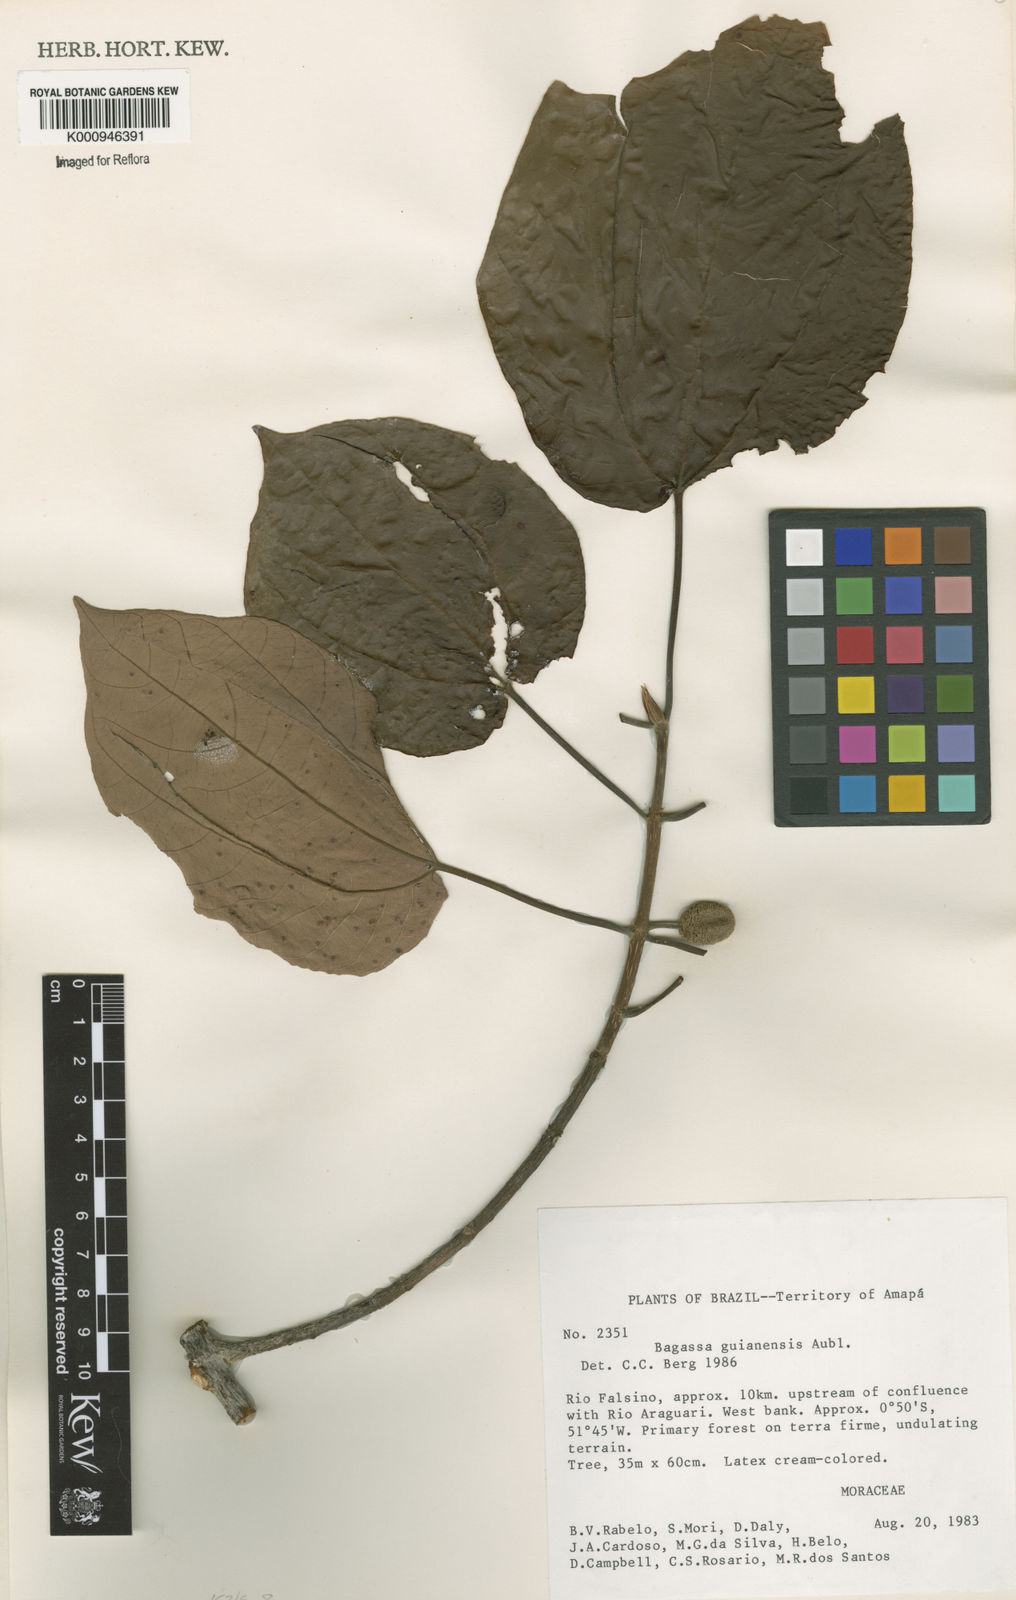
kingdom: Plantae
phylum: Tracheophyta
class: Magnoliopsida
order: Rosales
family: Moraceae
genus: Bagassa
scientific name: Bagassa guianensis
